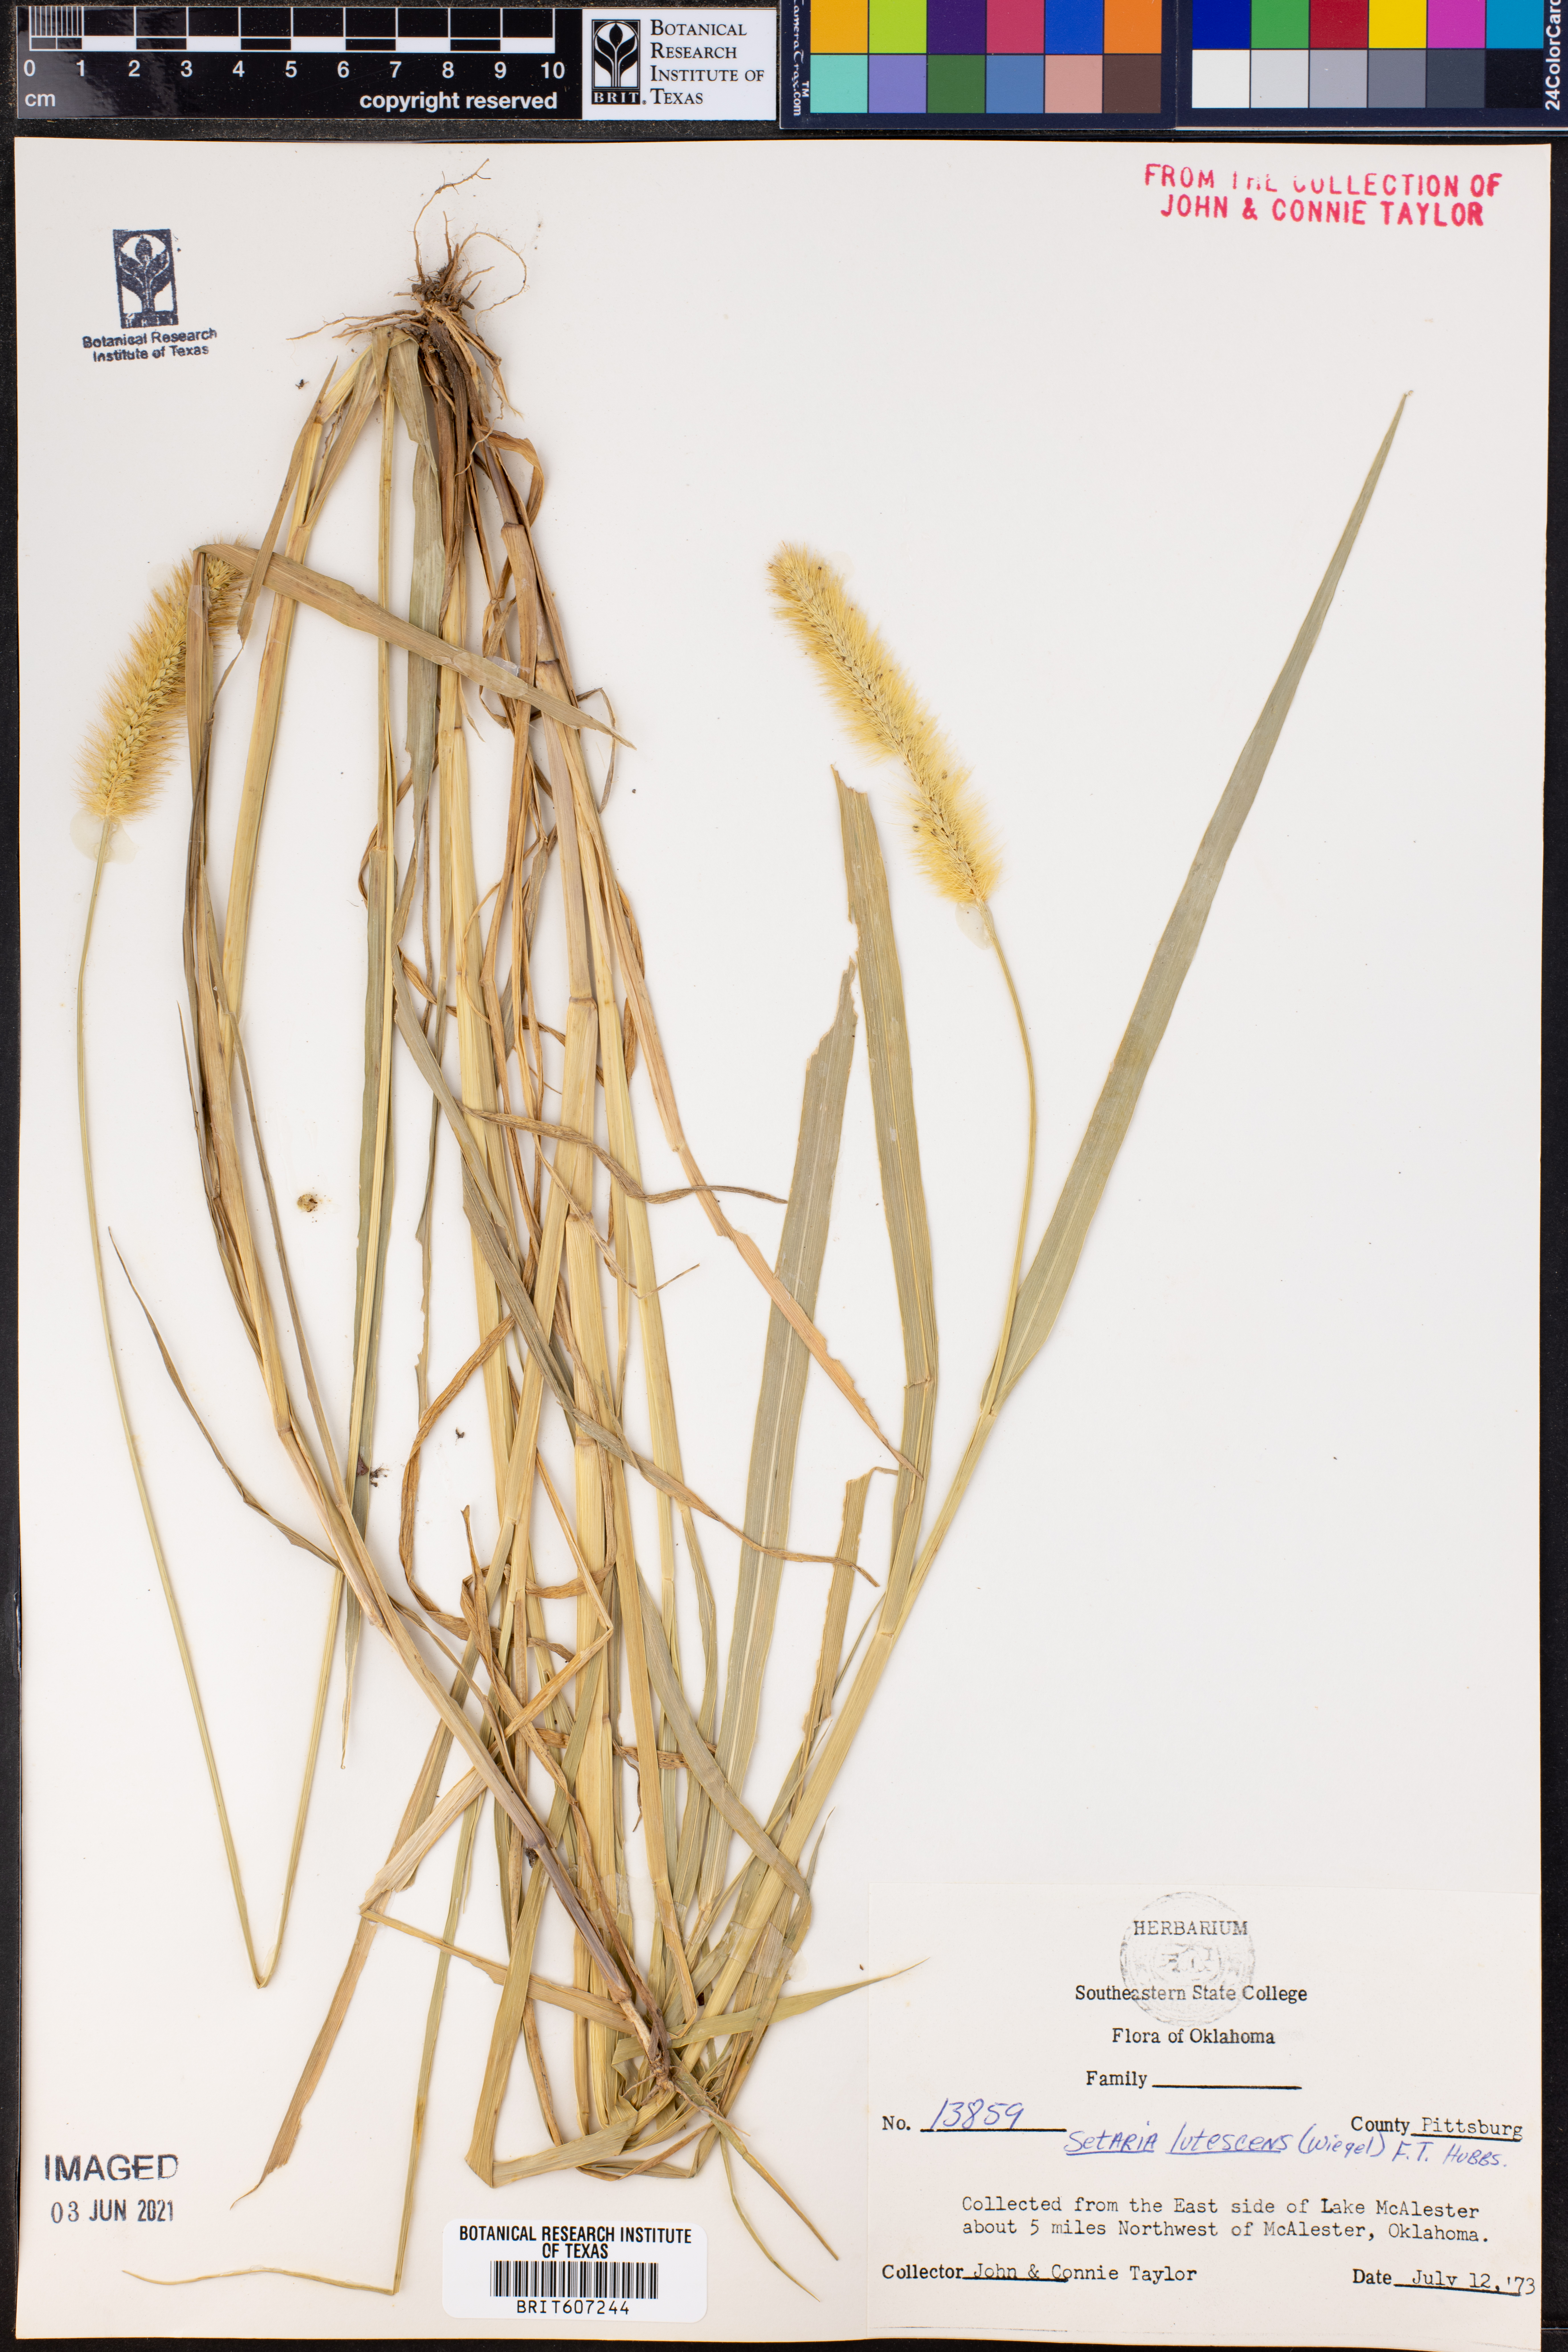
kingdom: Plantae
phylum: Tracheophyta
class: Liliopsida
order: Poales
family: Poaceae
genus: Cenchrus
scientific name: Cenchrus americanus
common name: Pearl millet
